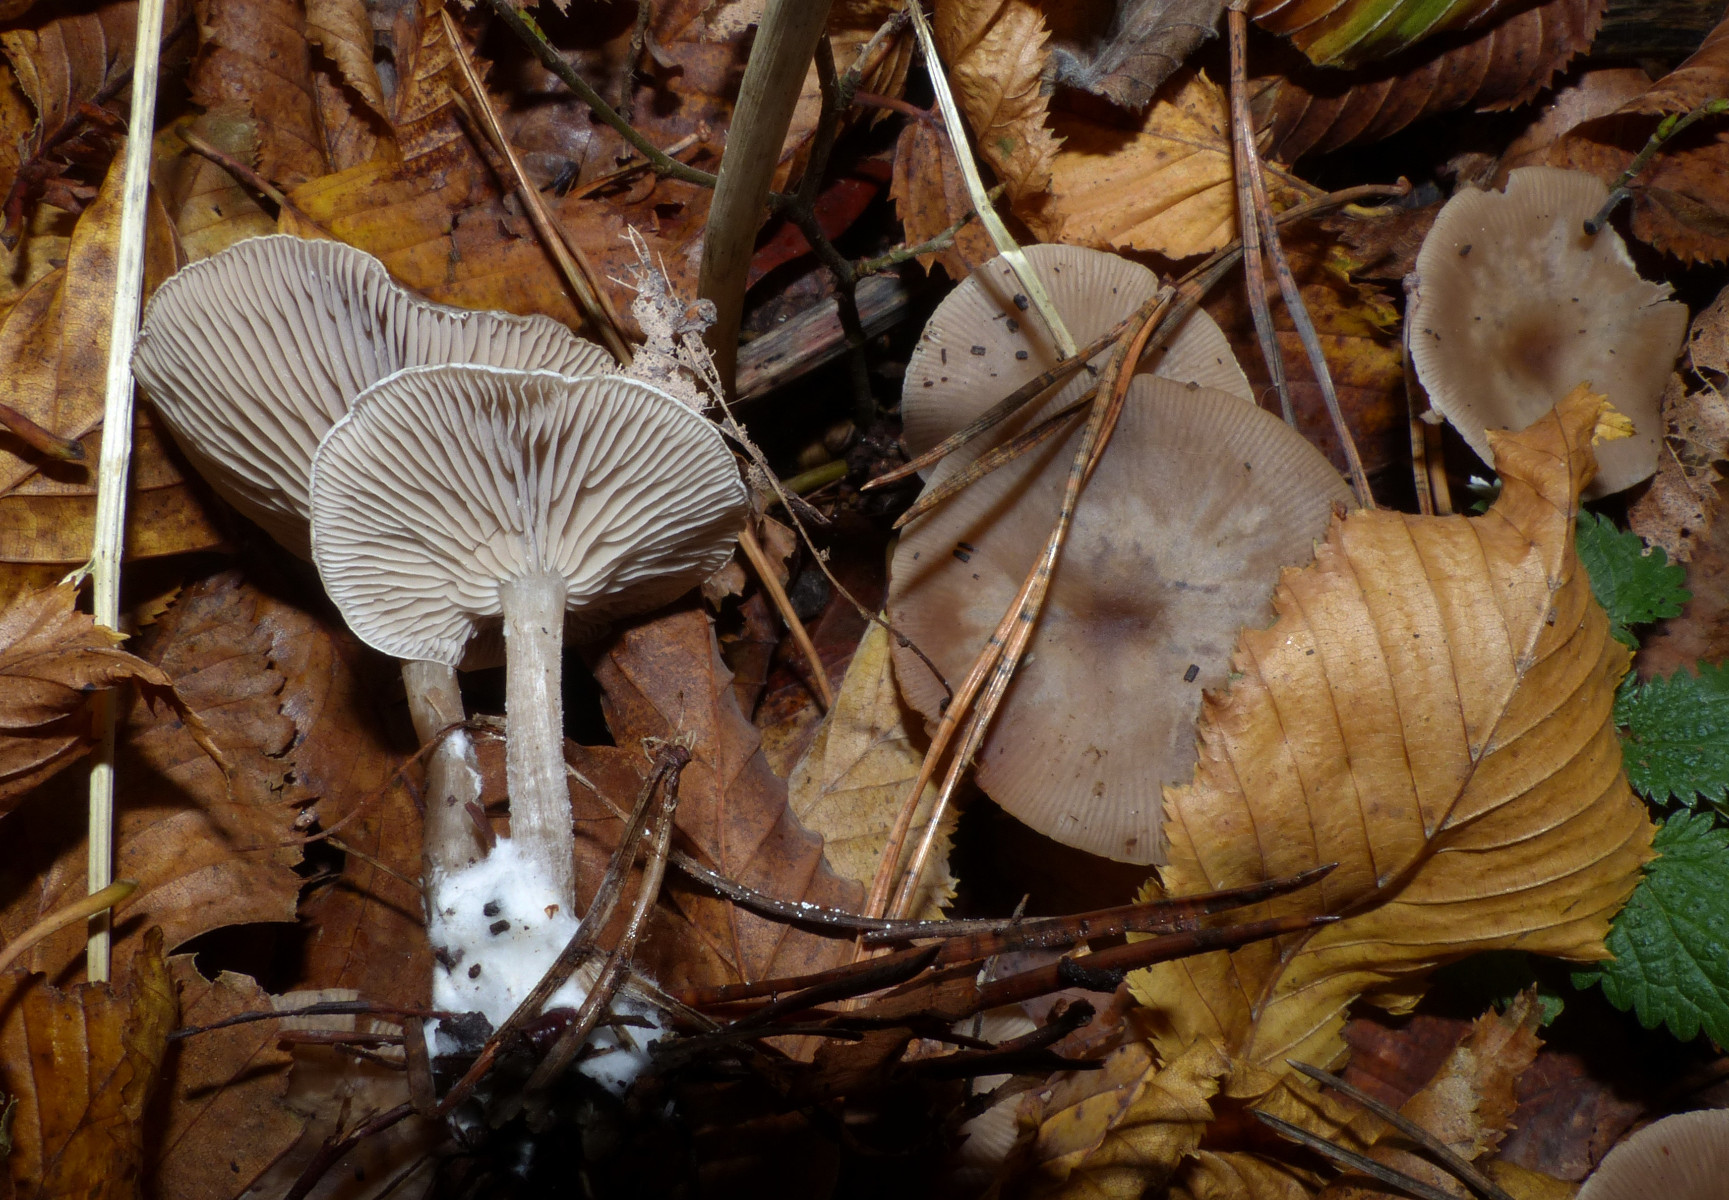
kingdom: Fungi
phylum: Basidiomycota
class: Agaricomycetes
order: Agaricales
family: Tricholomataceae
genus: Clitocybe
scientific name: Clitocybe
